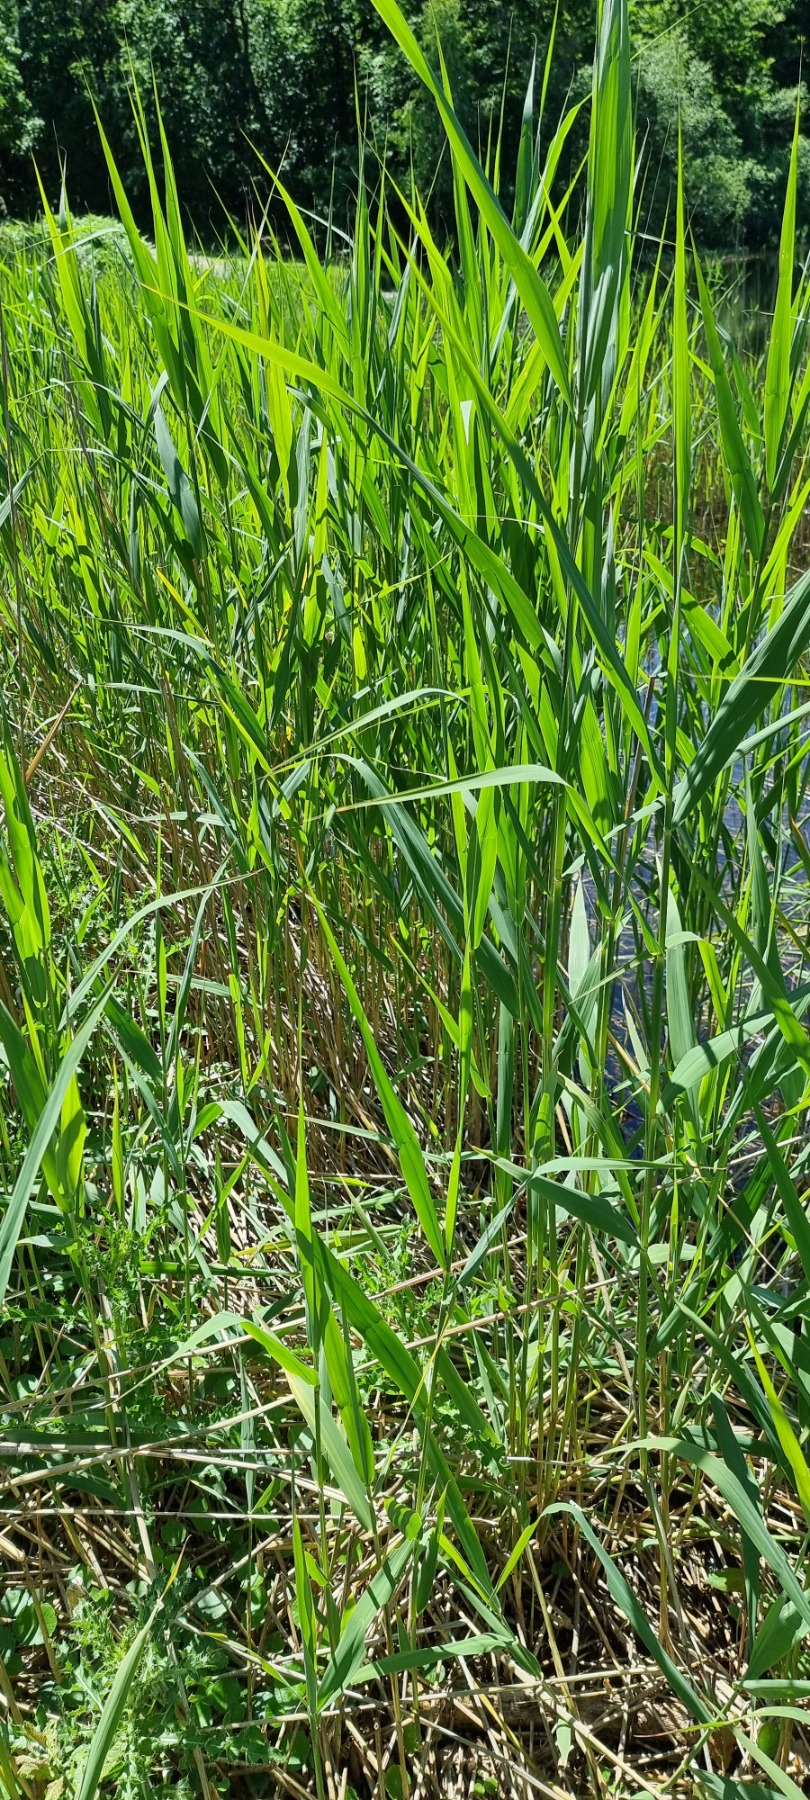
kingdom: Plantae
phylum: Tracheophyta
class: Liliopsida
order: Poales
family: Poaceae
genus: Phragmites
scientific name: Phragmites australis
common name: Tagrør
